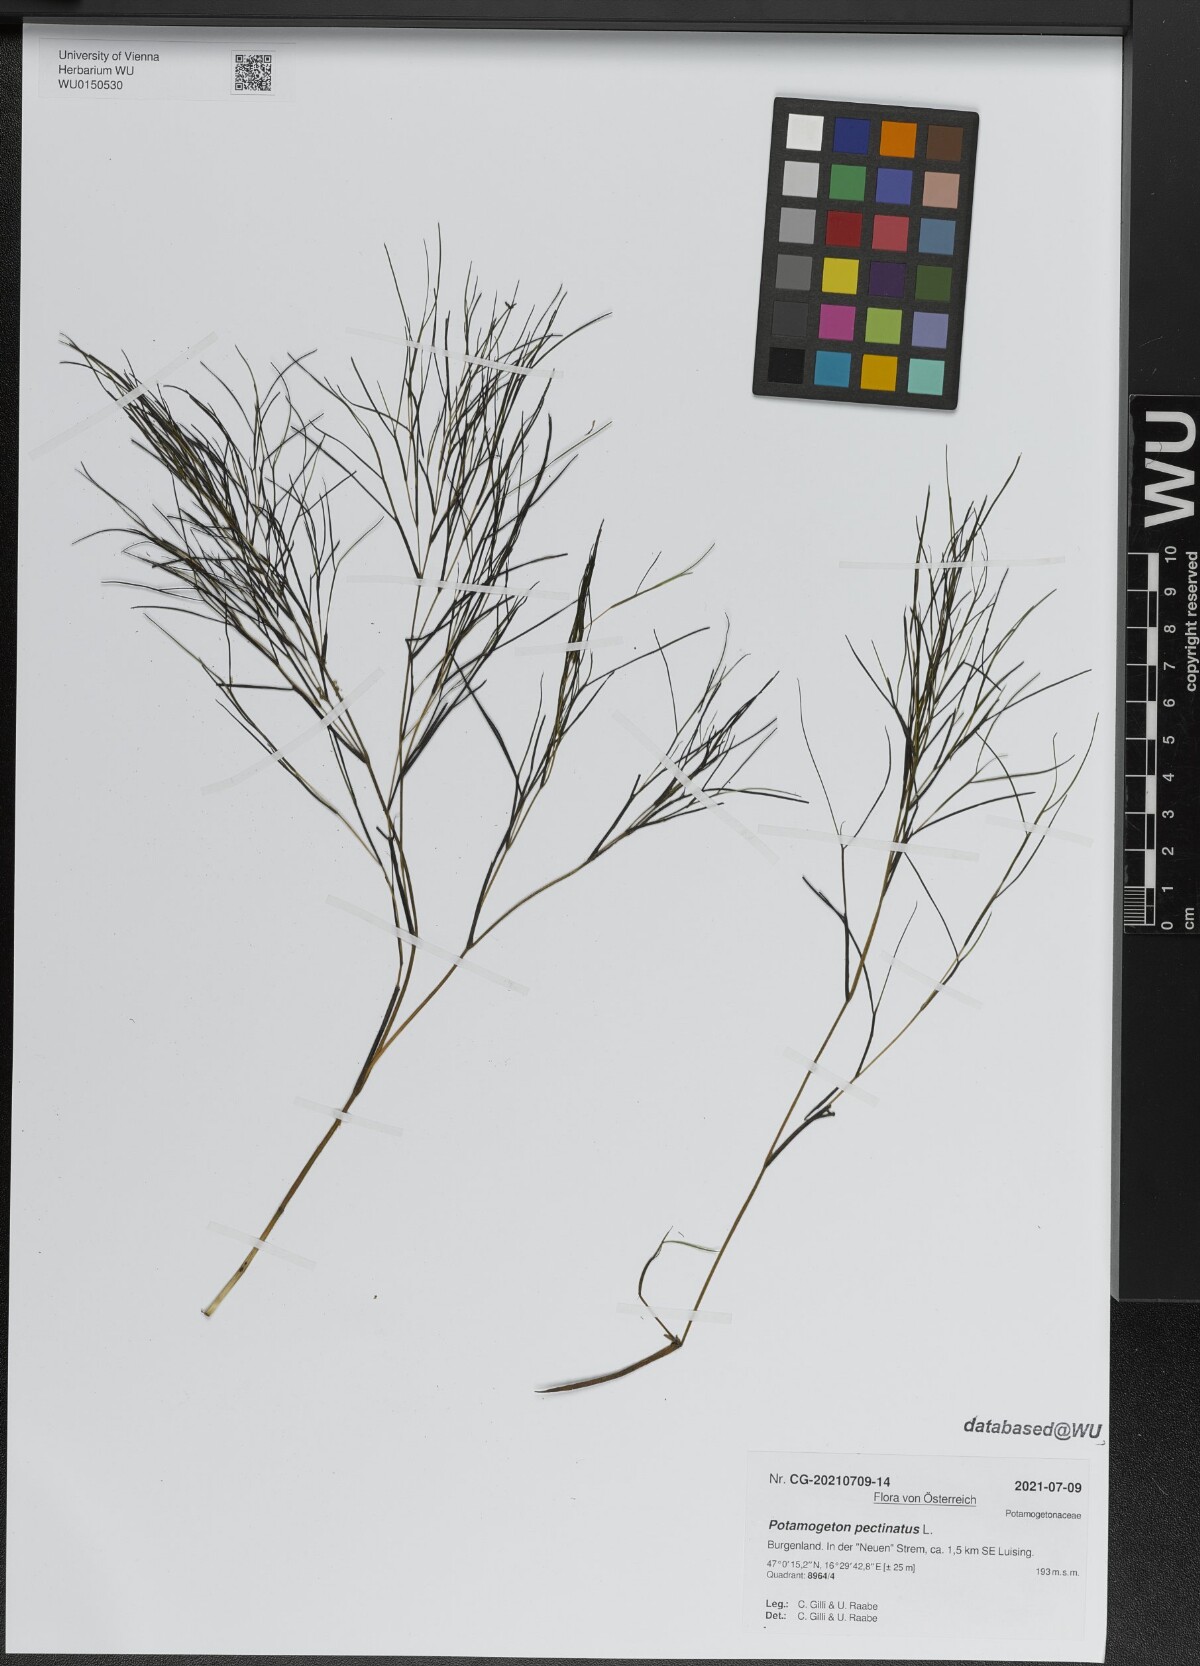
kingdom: Plantae
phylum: Tracheophyta
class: Liliopsida
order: Alismatales
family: Potamogetonaceae
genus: Stuckenia
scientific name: Stuckenia pectinata
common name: Sago pondweed
